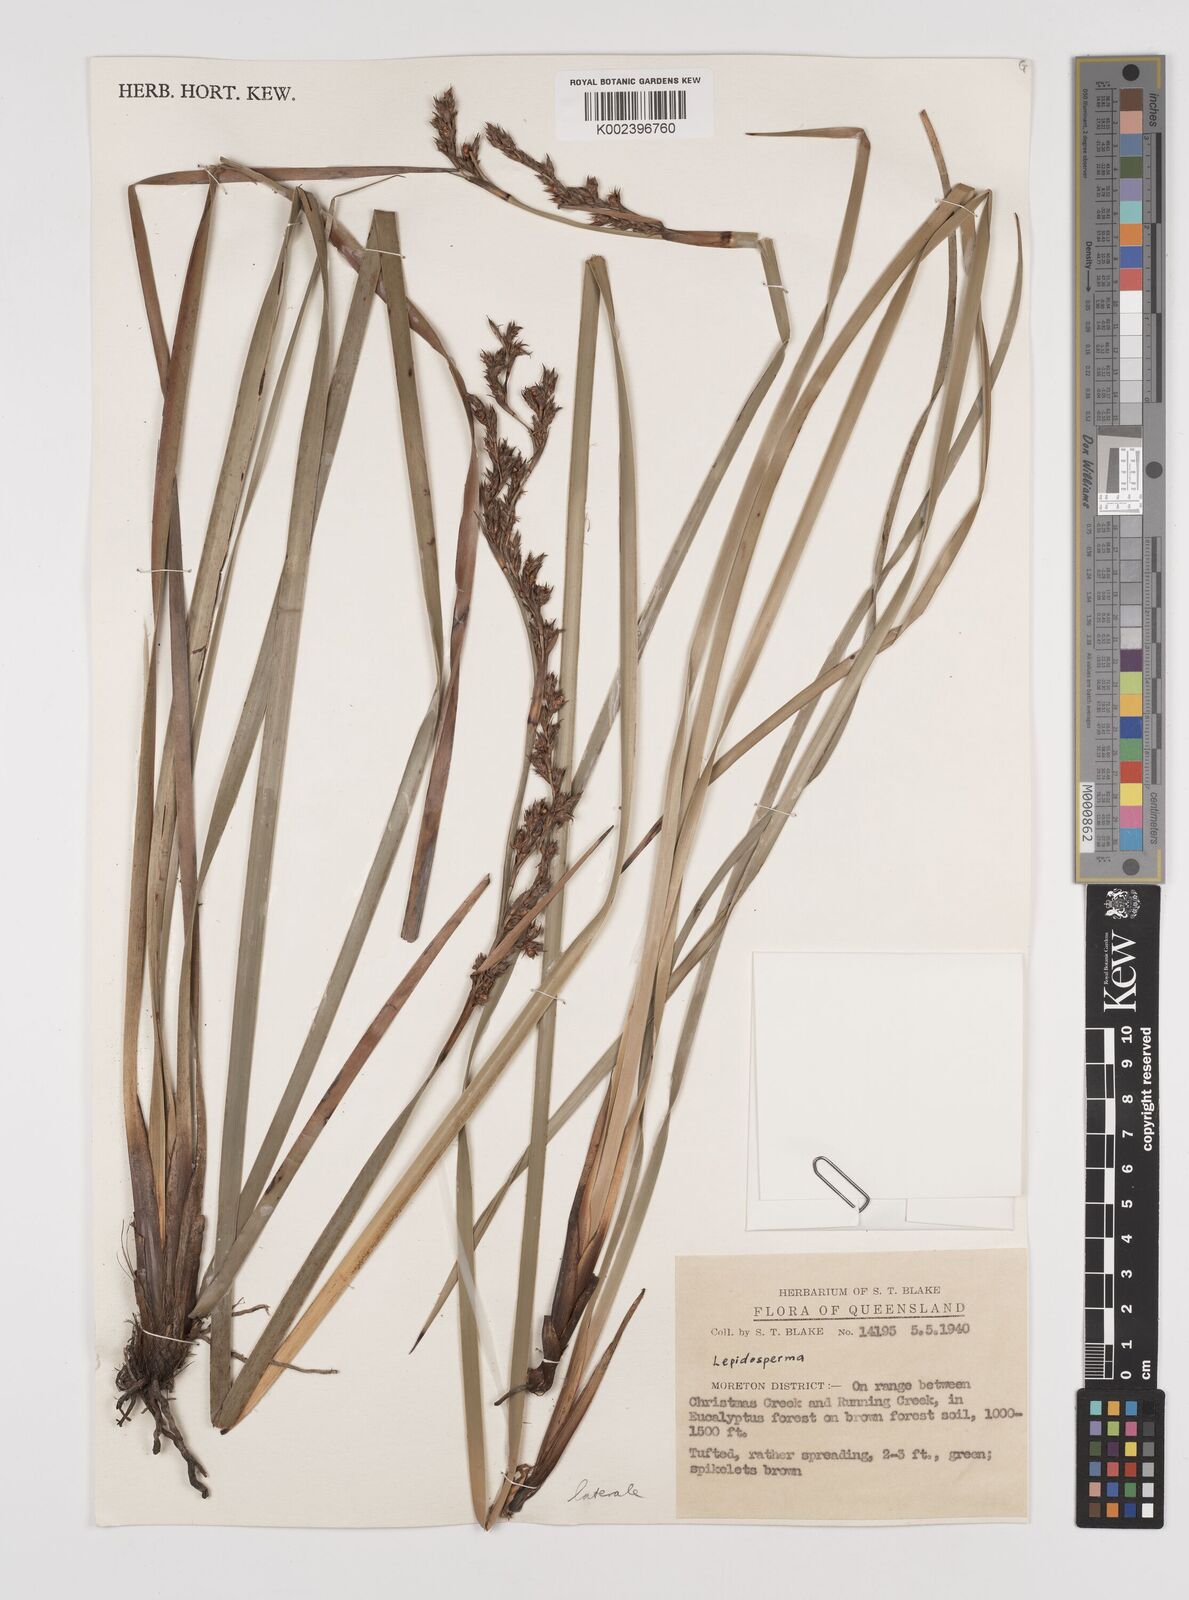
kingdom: Plantae
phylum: Tracheophyta
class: Liliopsida
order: Poales
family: Cyperaceae
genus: Lepidosperma
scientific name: Lepidosperma laterale
